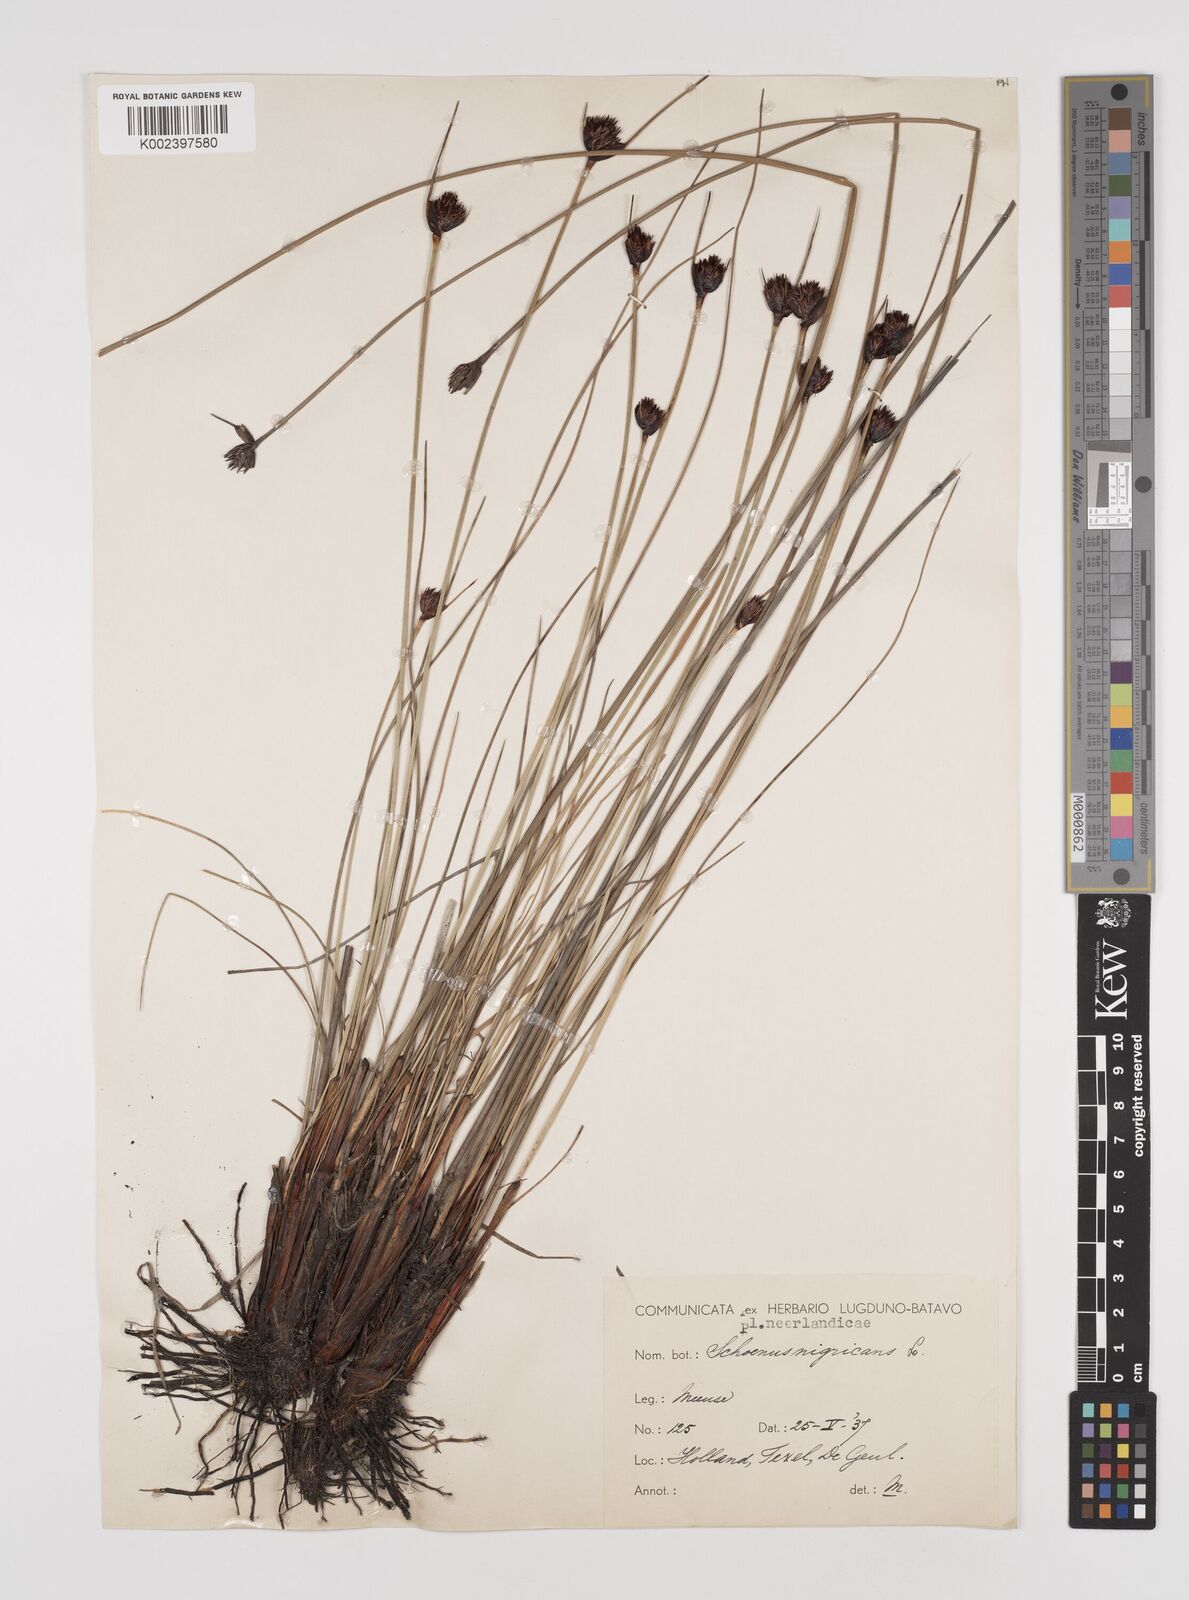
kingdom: Plantae
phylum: Tracheophyta
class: Liliopsida
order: Poales
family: Cyperaceae
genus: Schoenus
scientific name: Schoenus nigricans
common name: Black bog-rush
